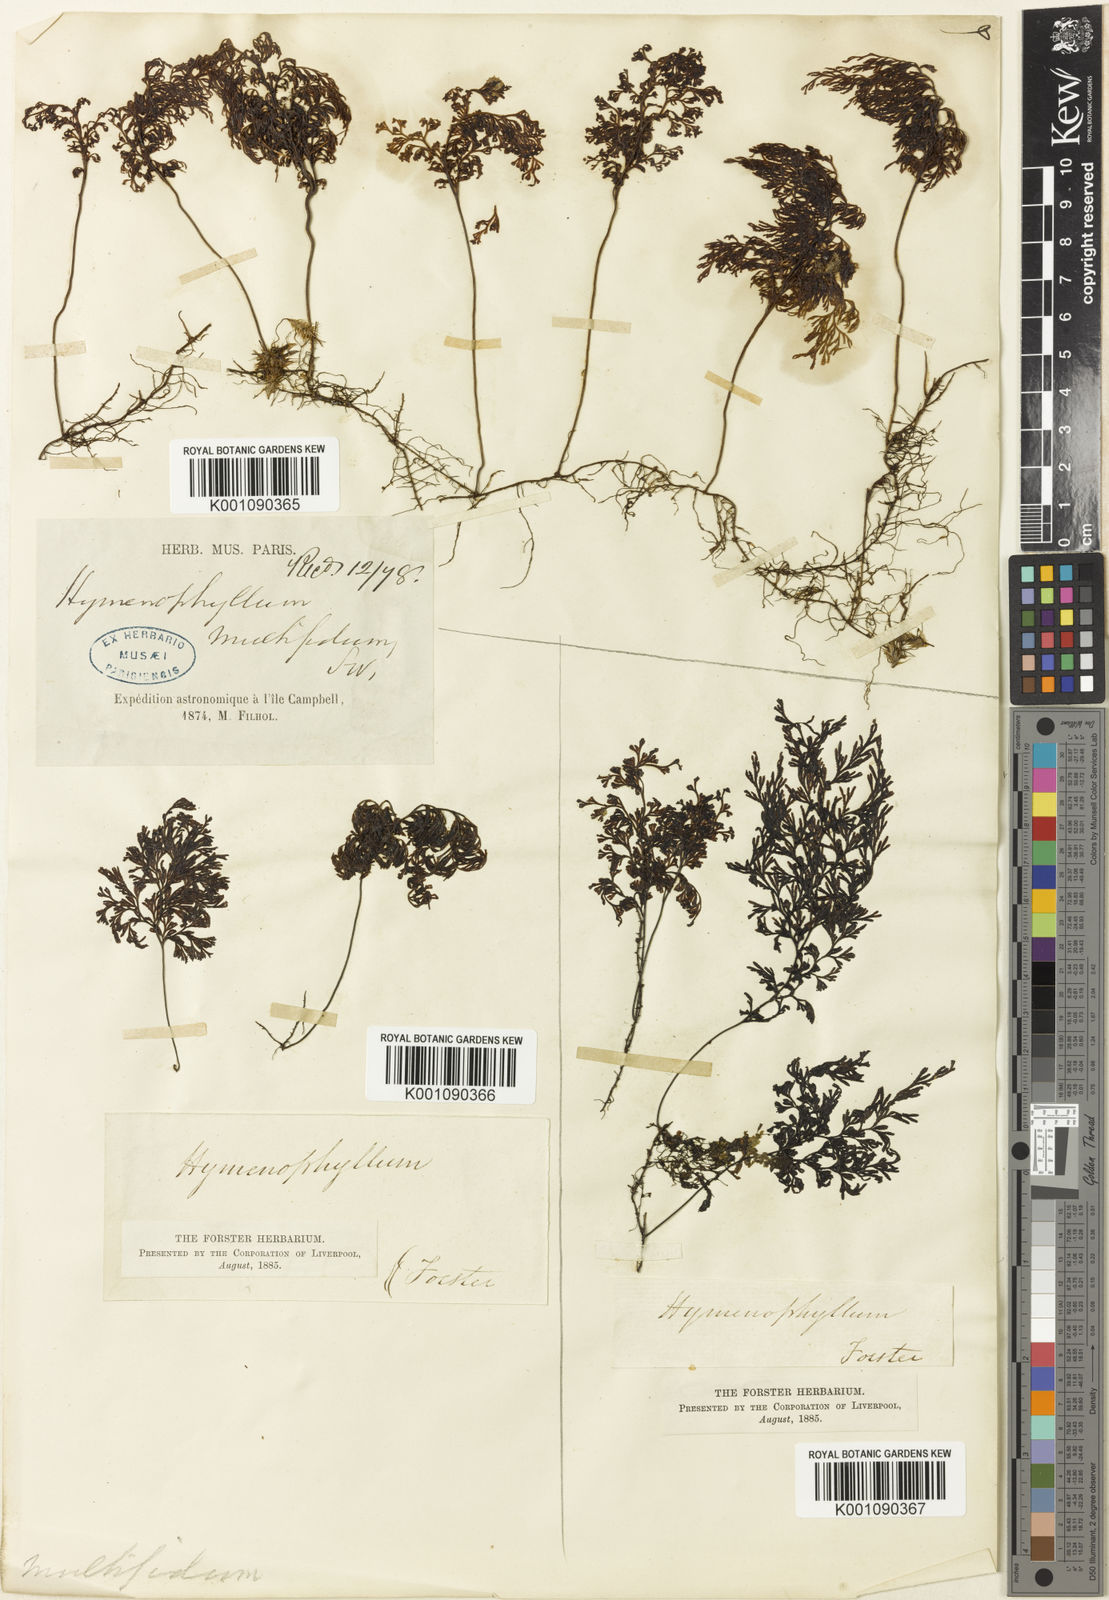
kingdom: Plantae
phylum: Tracheophyta
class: Polypodiopsida
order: Hymenophyllales
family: Hymenophyllaceae
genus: Hymenophyllum
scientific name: Hymenophyllum multifidum
